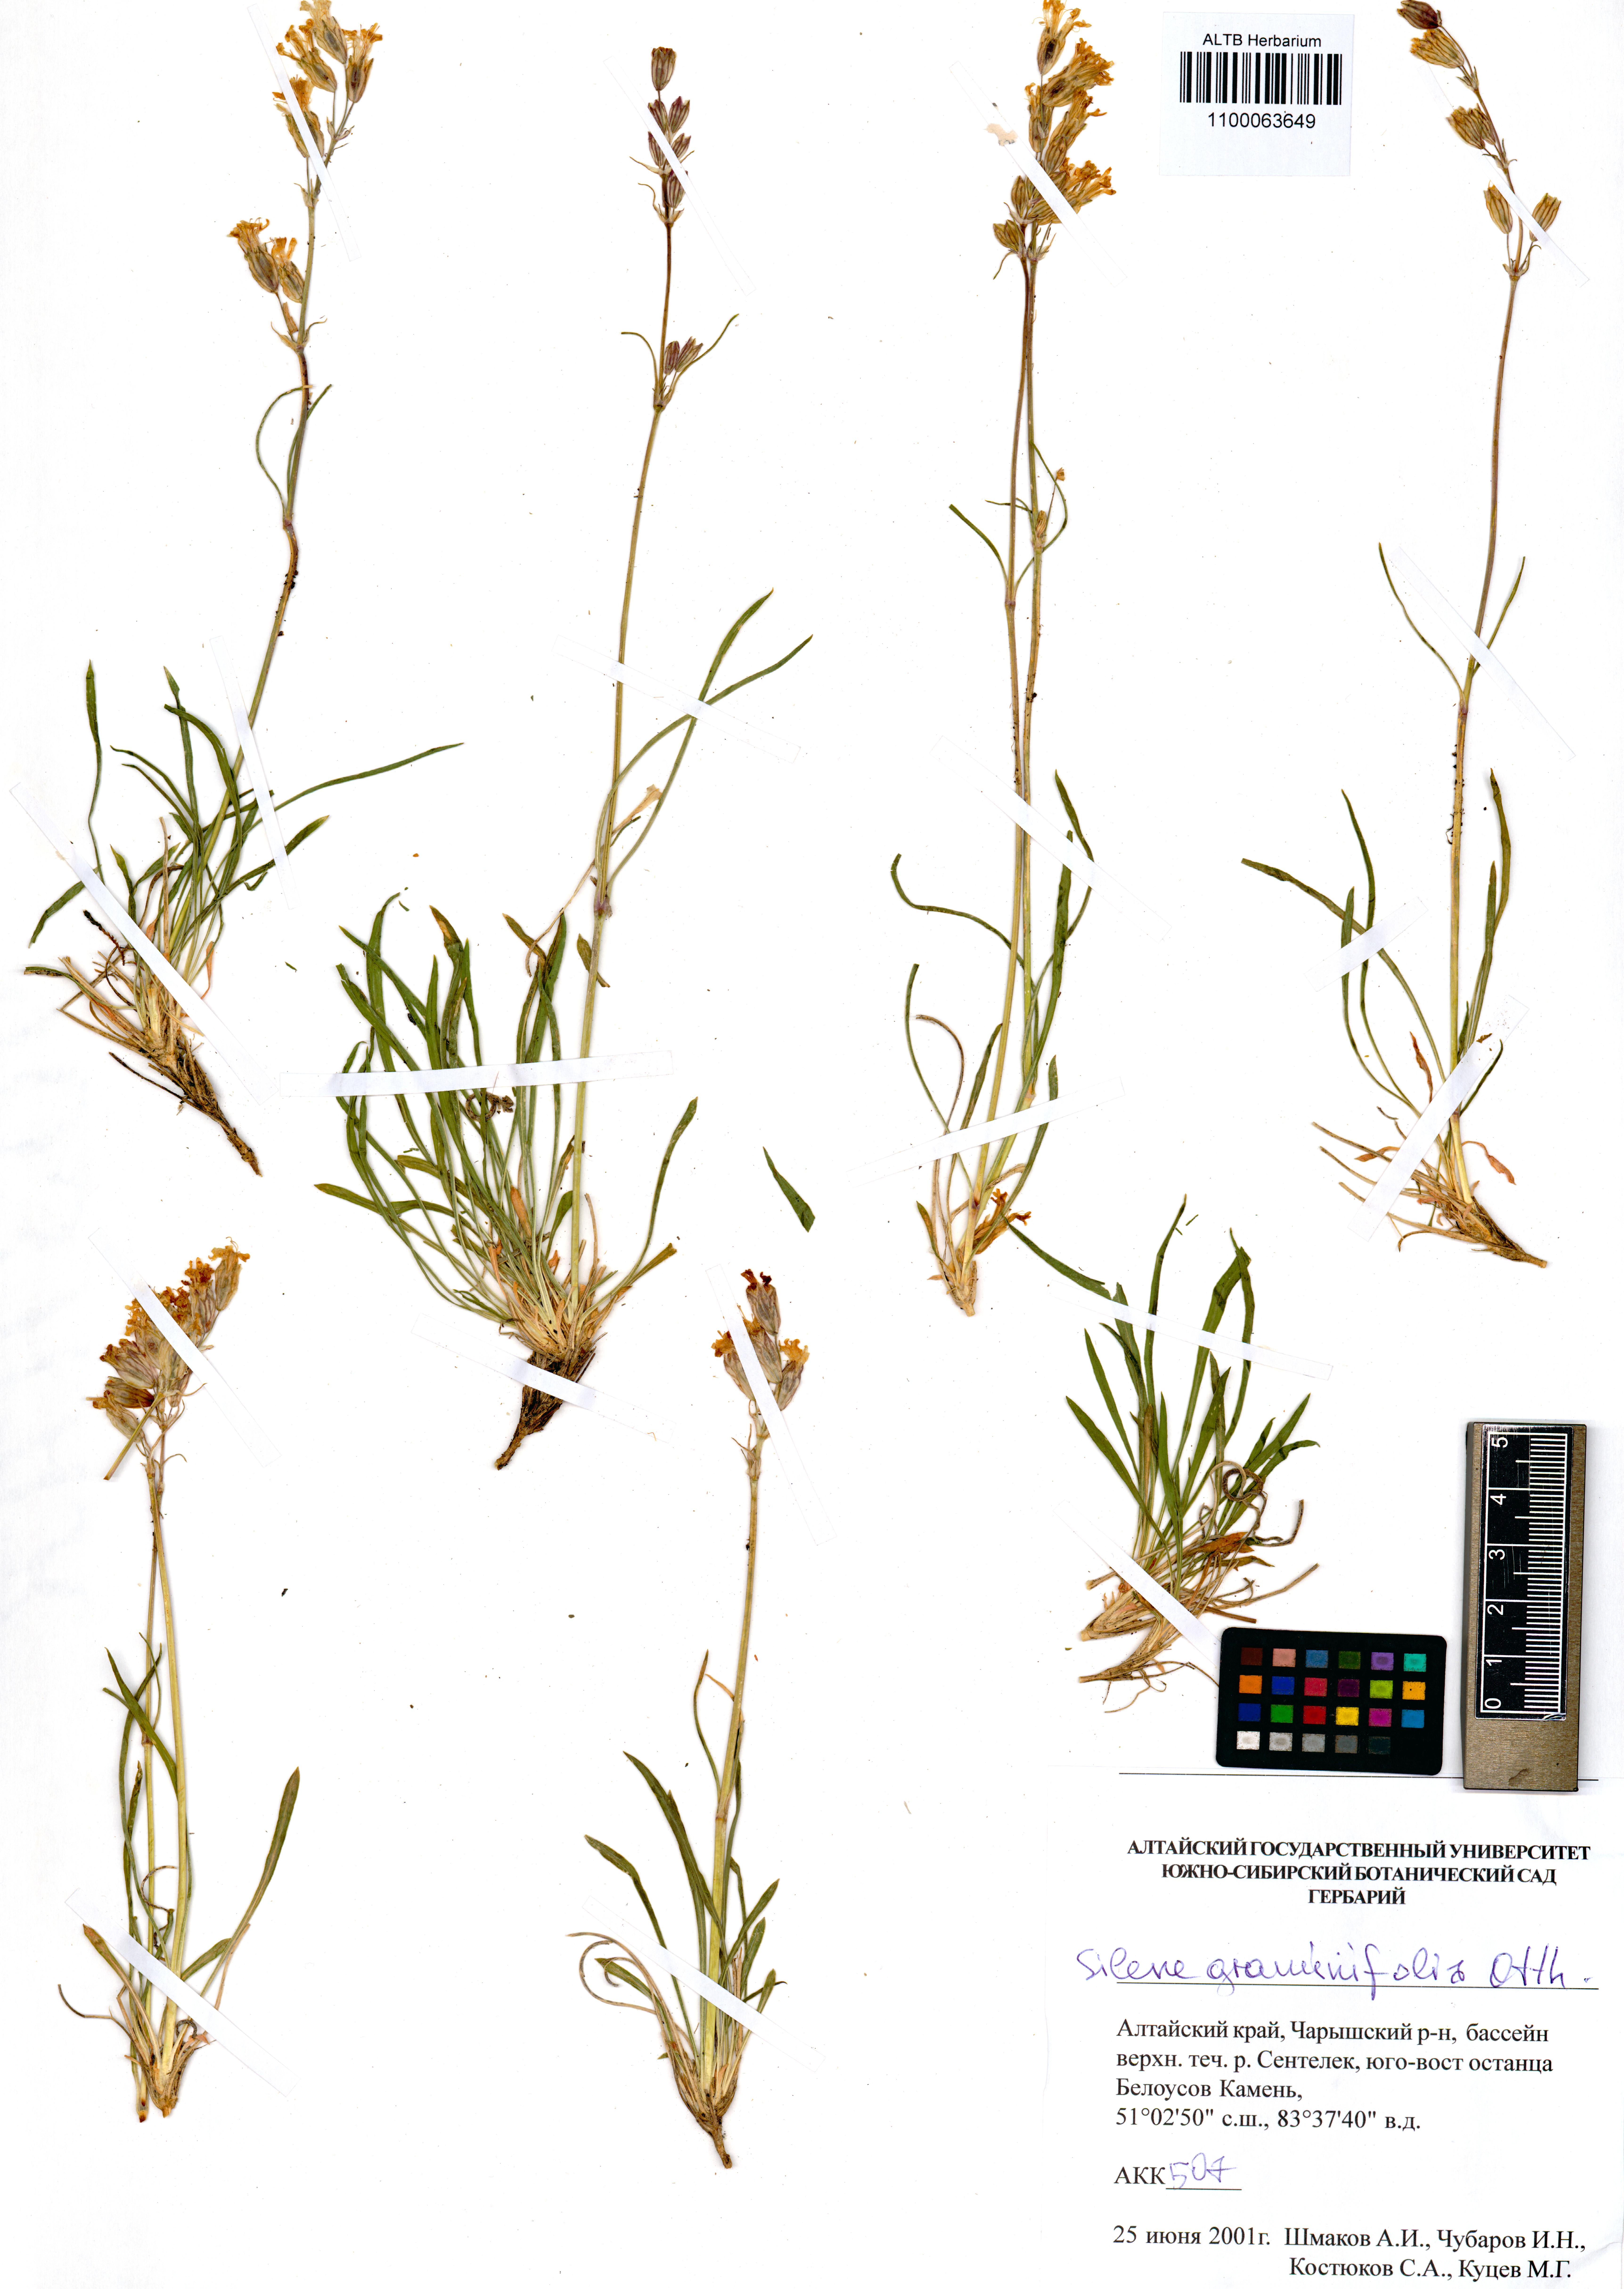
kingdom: Plantae
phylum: Tracheophyta
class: Magnoliopsida
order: Caryophyllales
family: Caryophyllaceae
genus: Silene
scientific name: Silene graminifolia
